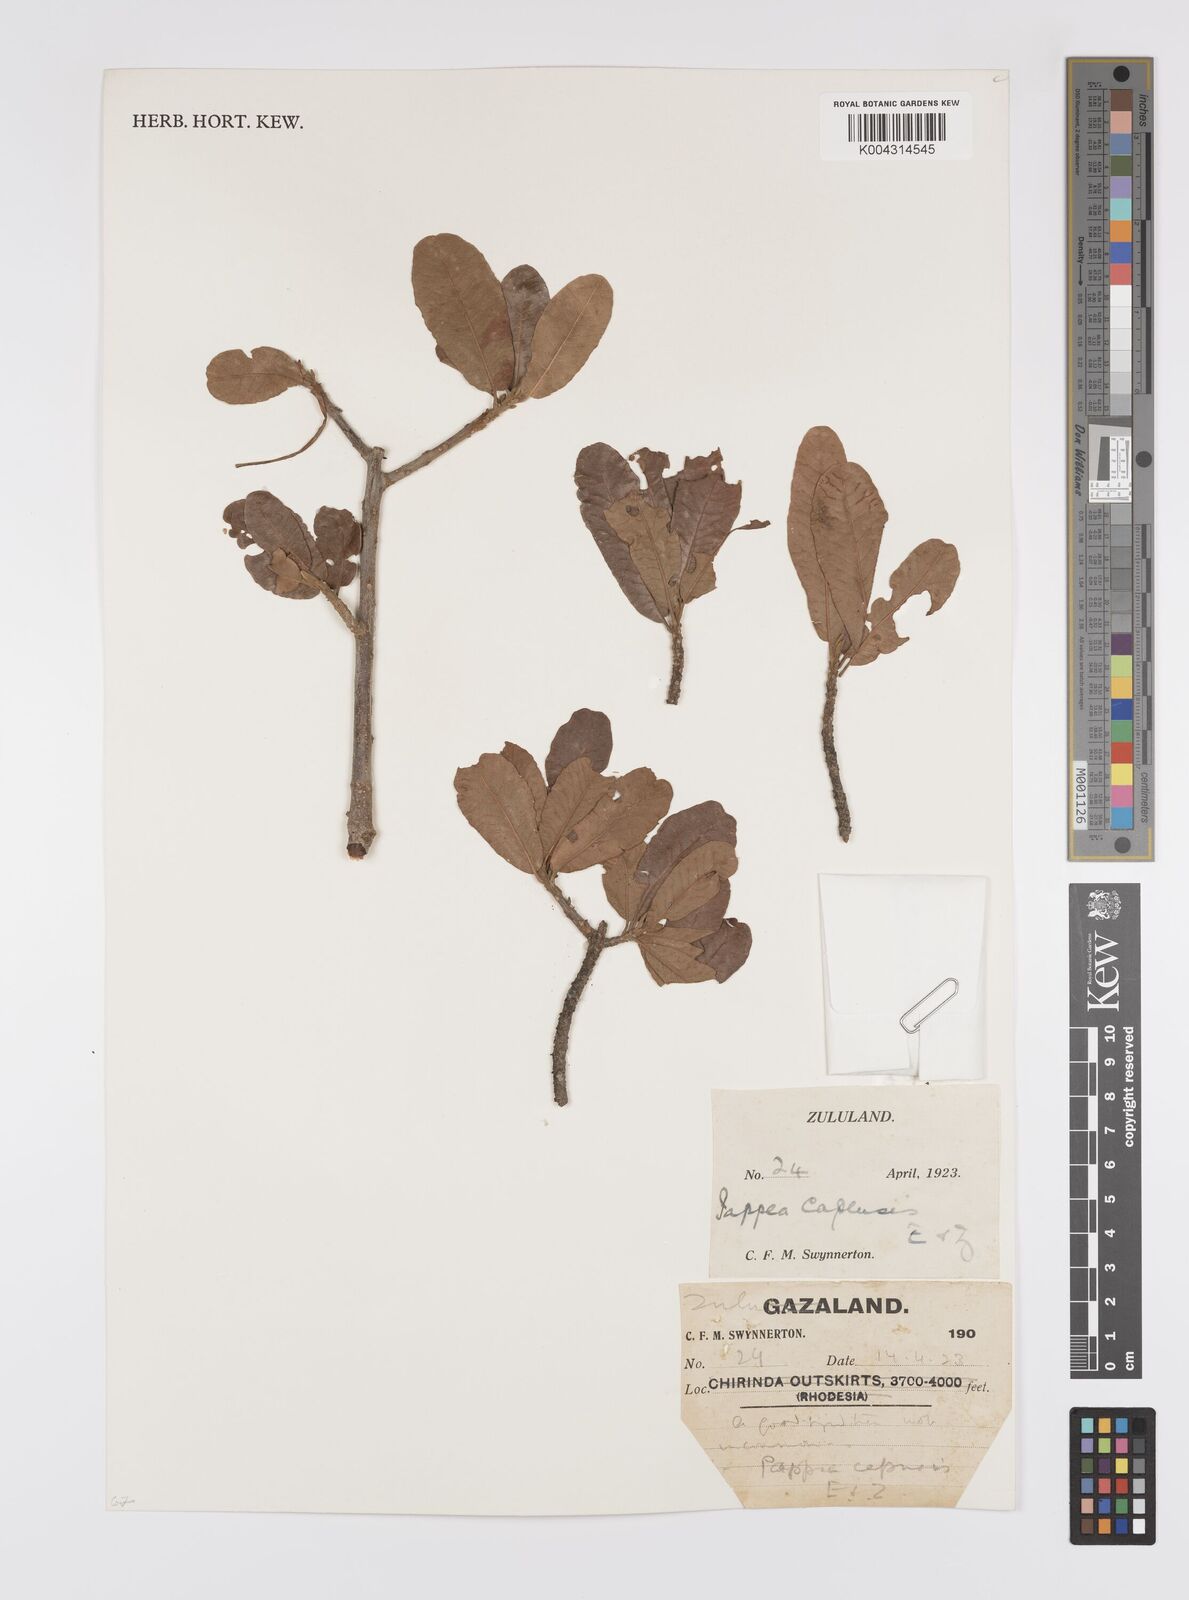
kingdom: Plantae
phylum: Tracheophyta
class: Magnoliopsida
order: Sapindales
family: Sapindaceae
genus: Pappea
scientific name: Pappea capensis
